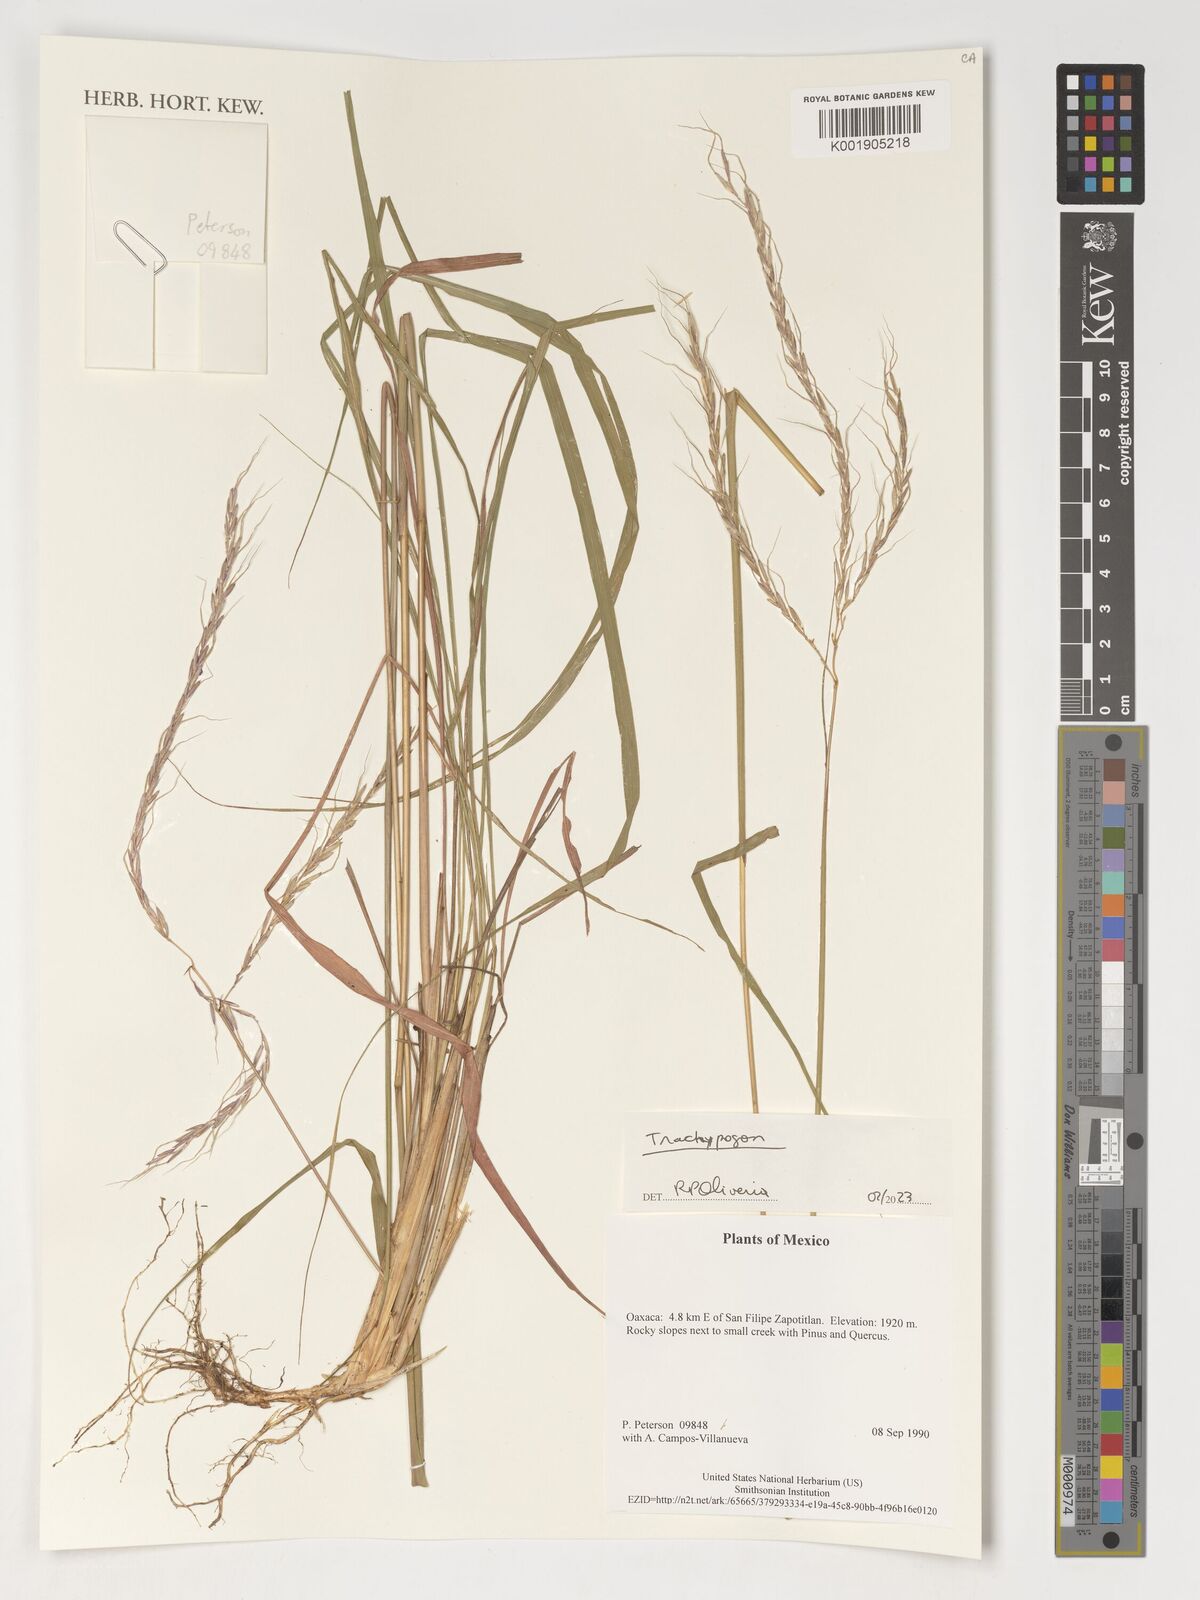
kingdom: Plantae
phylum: Tracheophyta
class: Liliopsida
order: Poales
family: Poaceae
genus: Trachypogon
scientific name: Trachypogon
